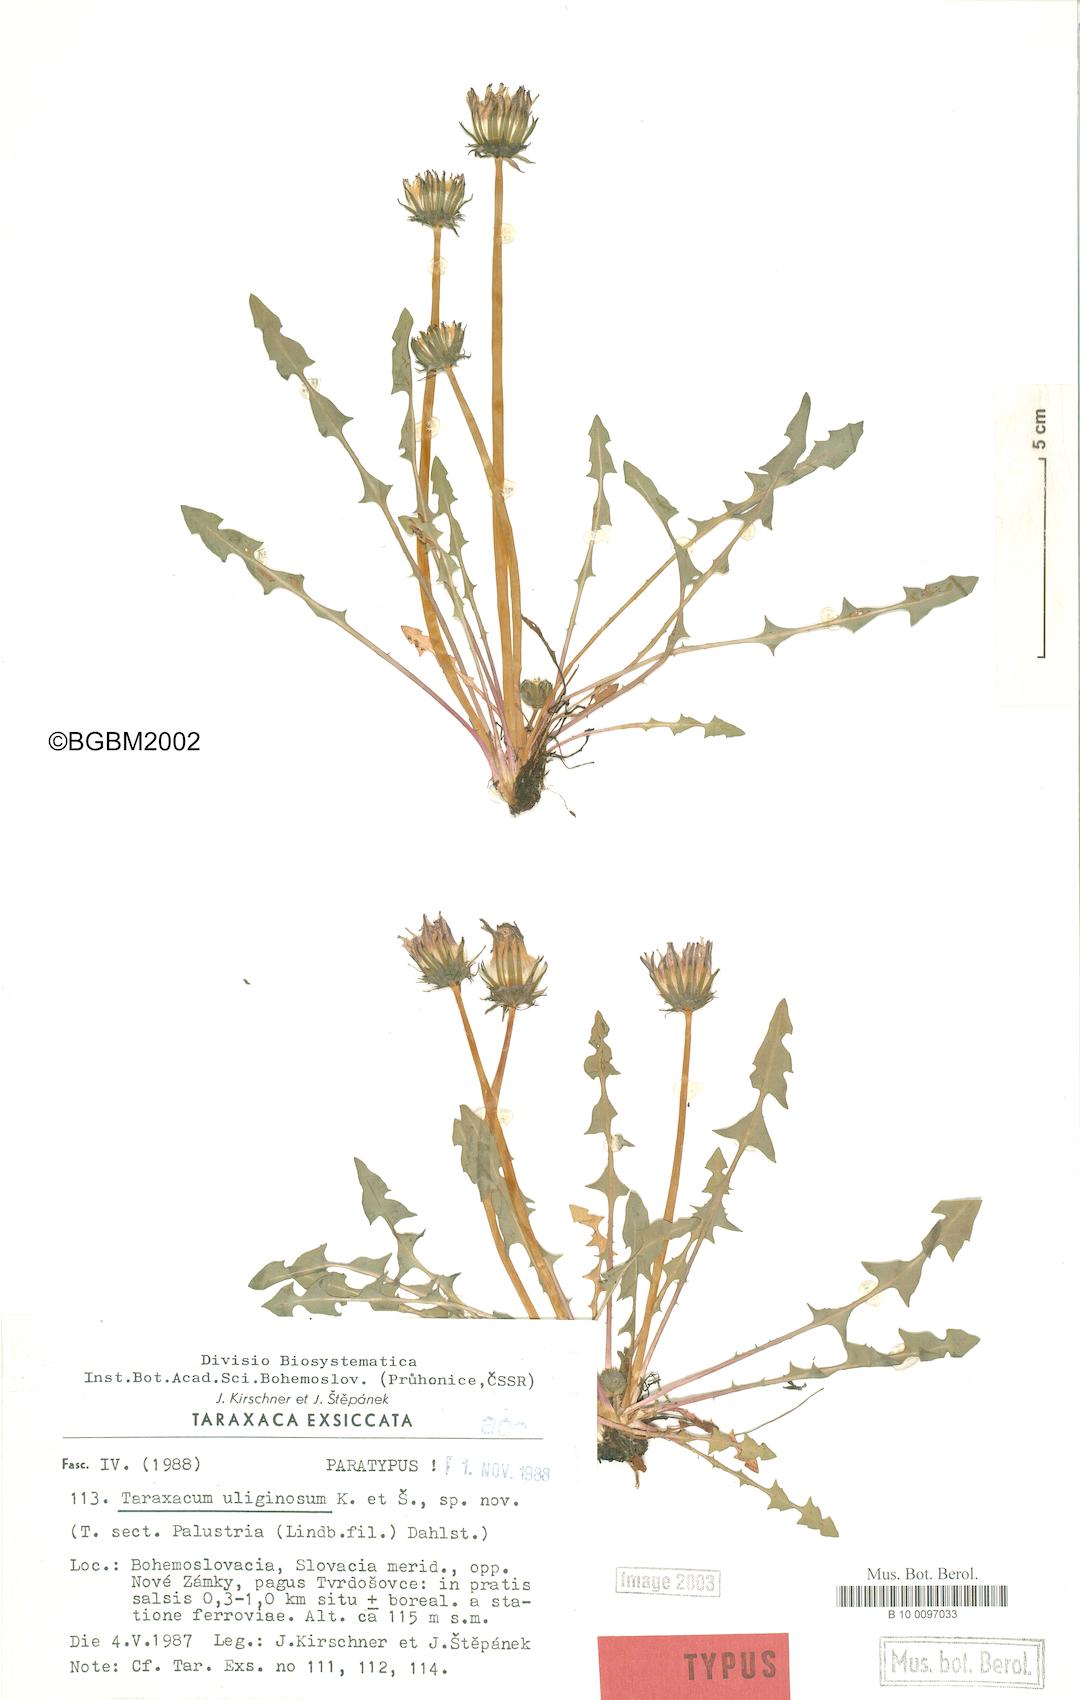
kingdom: Plantae
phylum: Tracheophyta
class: Magnoliopsida
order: Asterales
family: Asteraceae
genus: Taraxacum
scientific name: Taraxacum uliginosum
